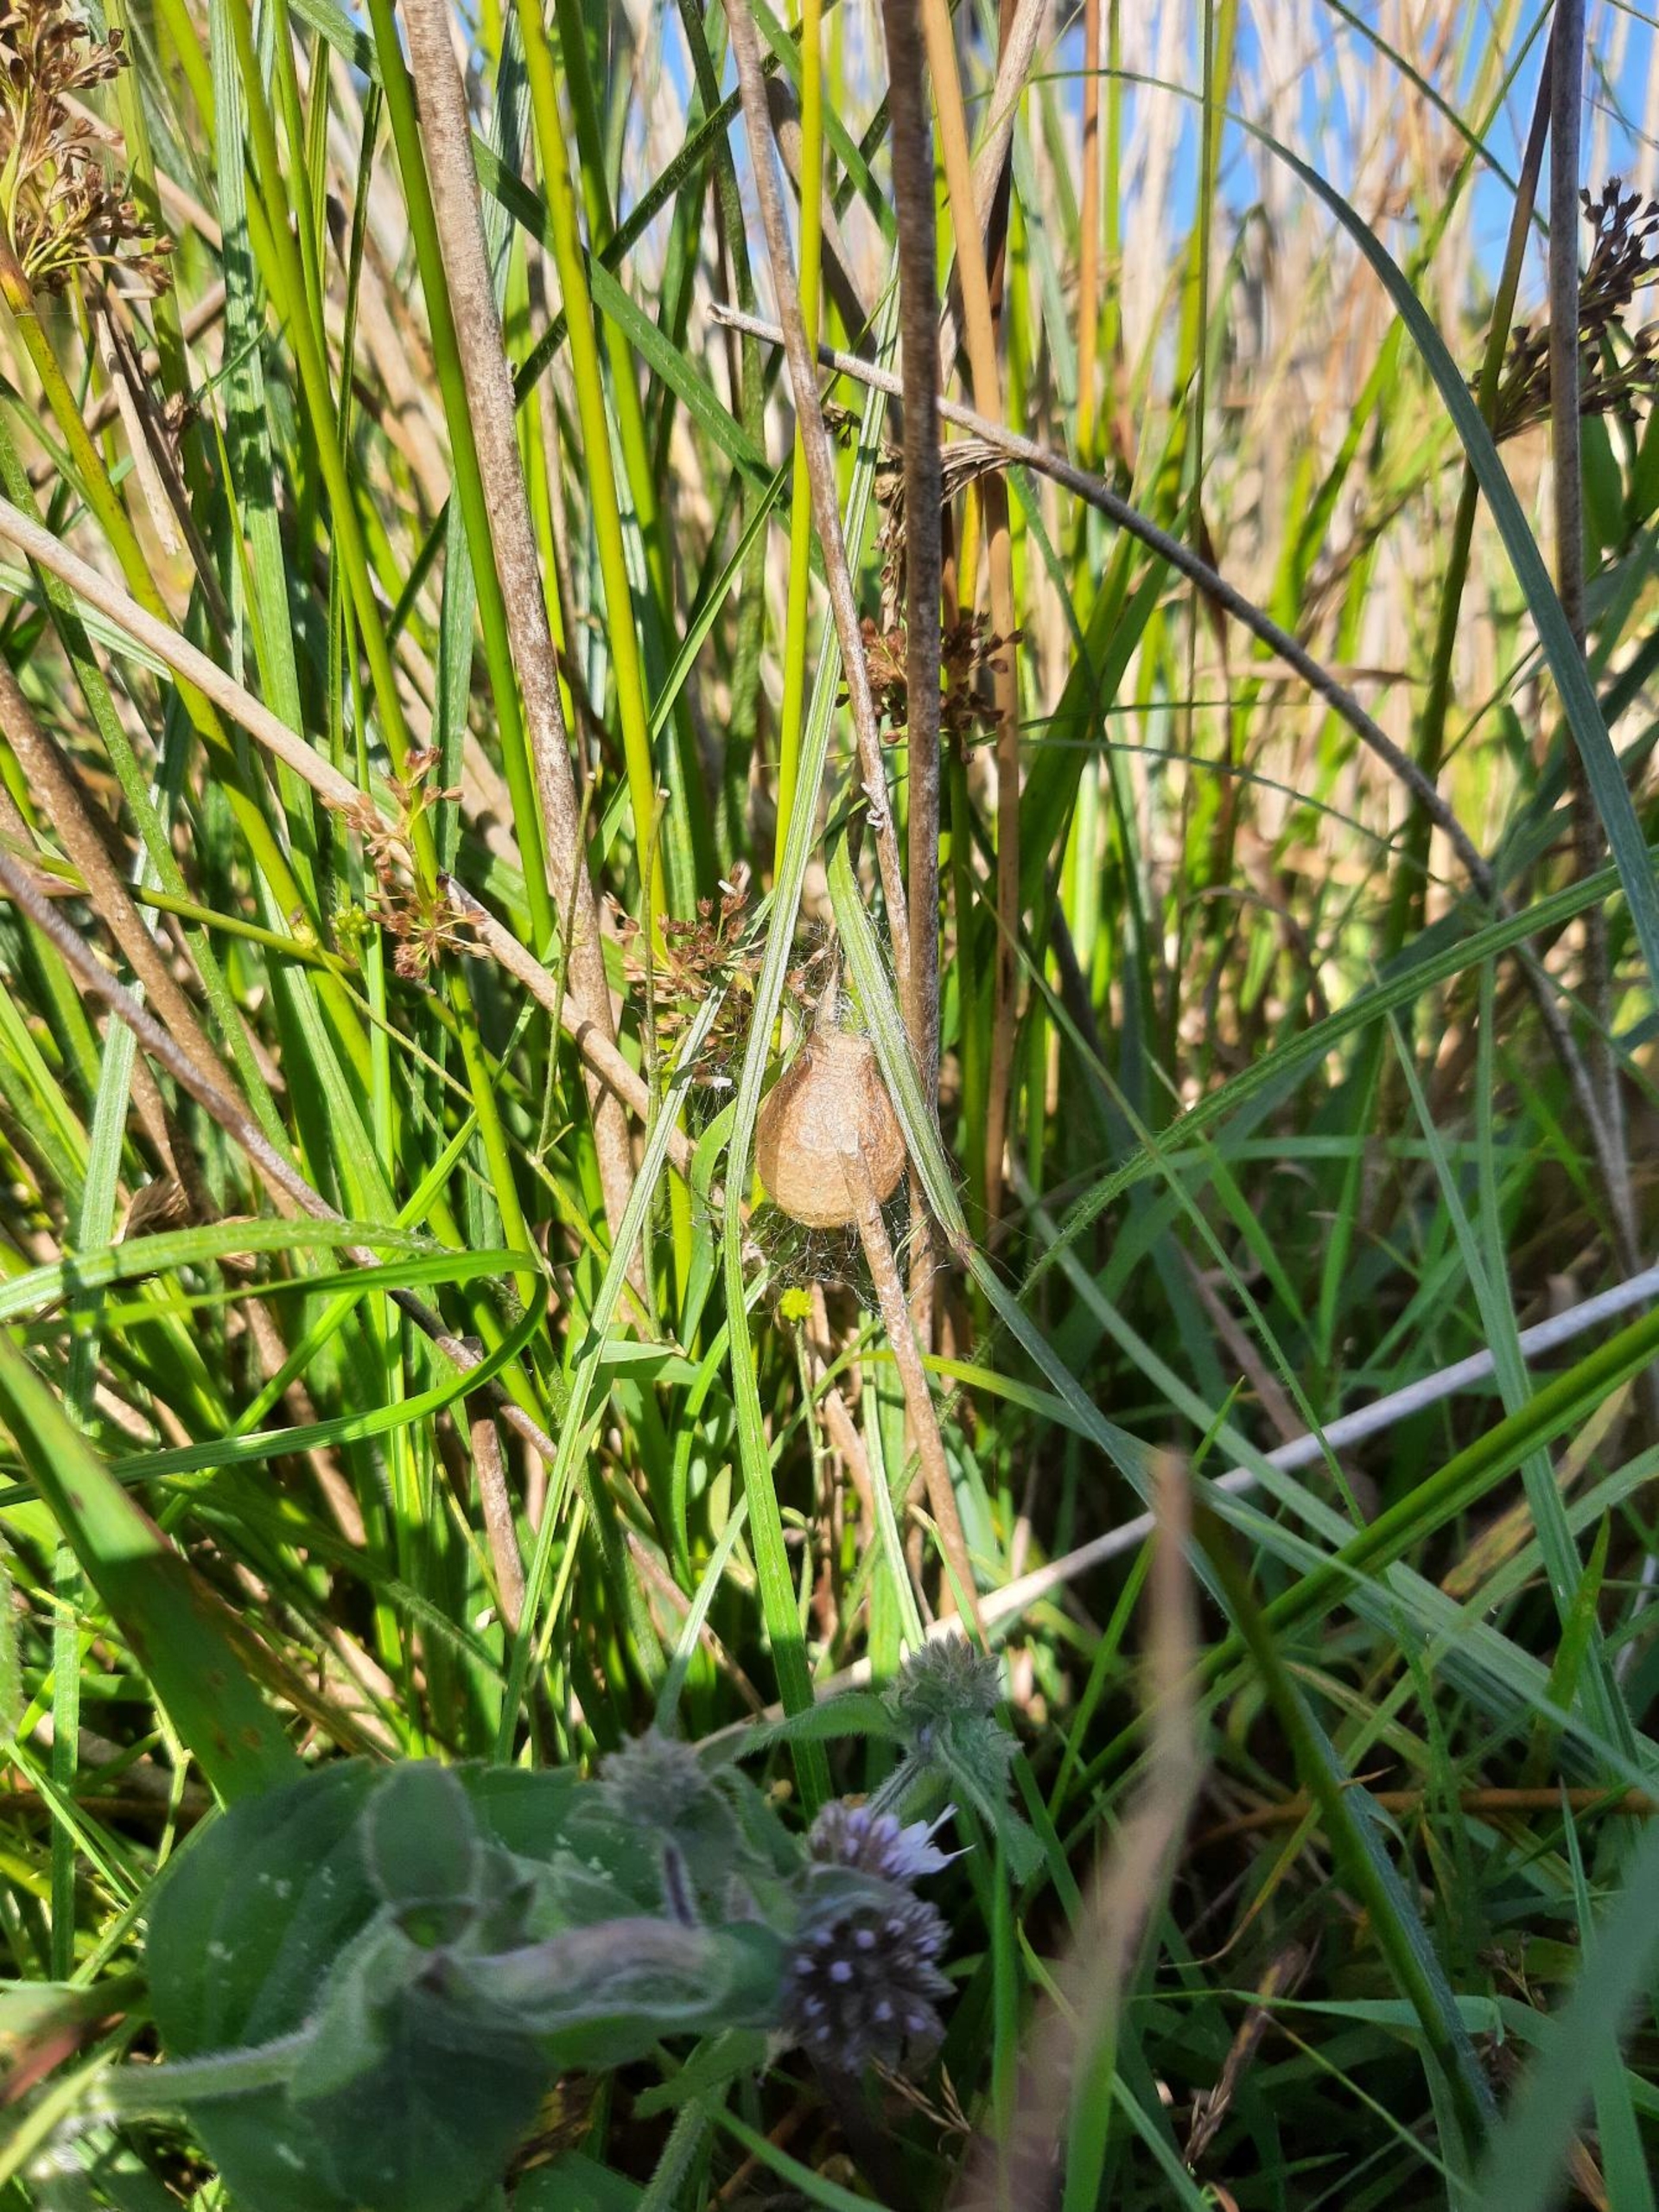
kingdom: Animalia
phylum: Arthropoda
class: Arachnida
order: Araneae
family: Araneidae
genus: Argiope
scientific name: Argiope bruennichi
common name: Hvepseedderkop
